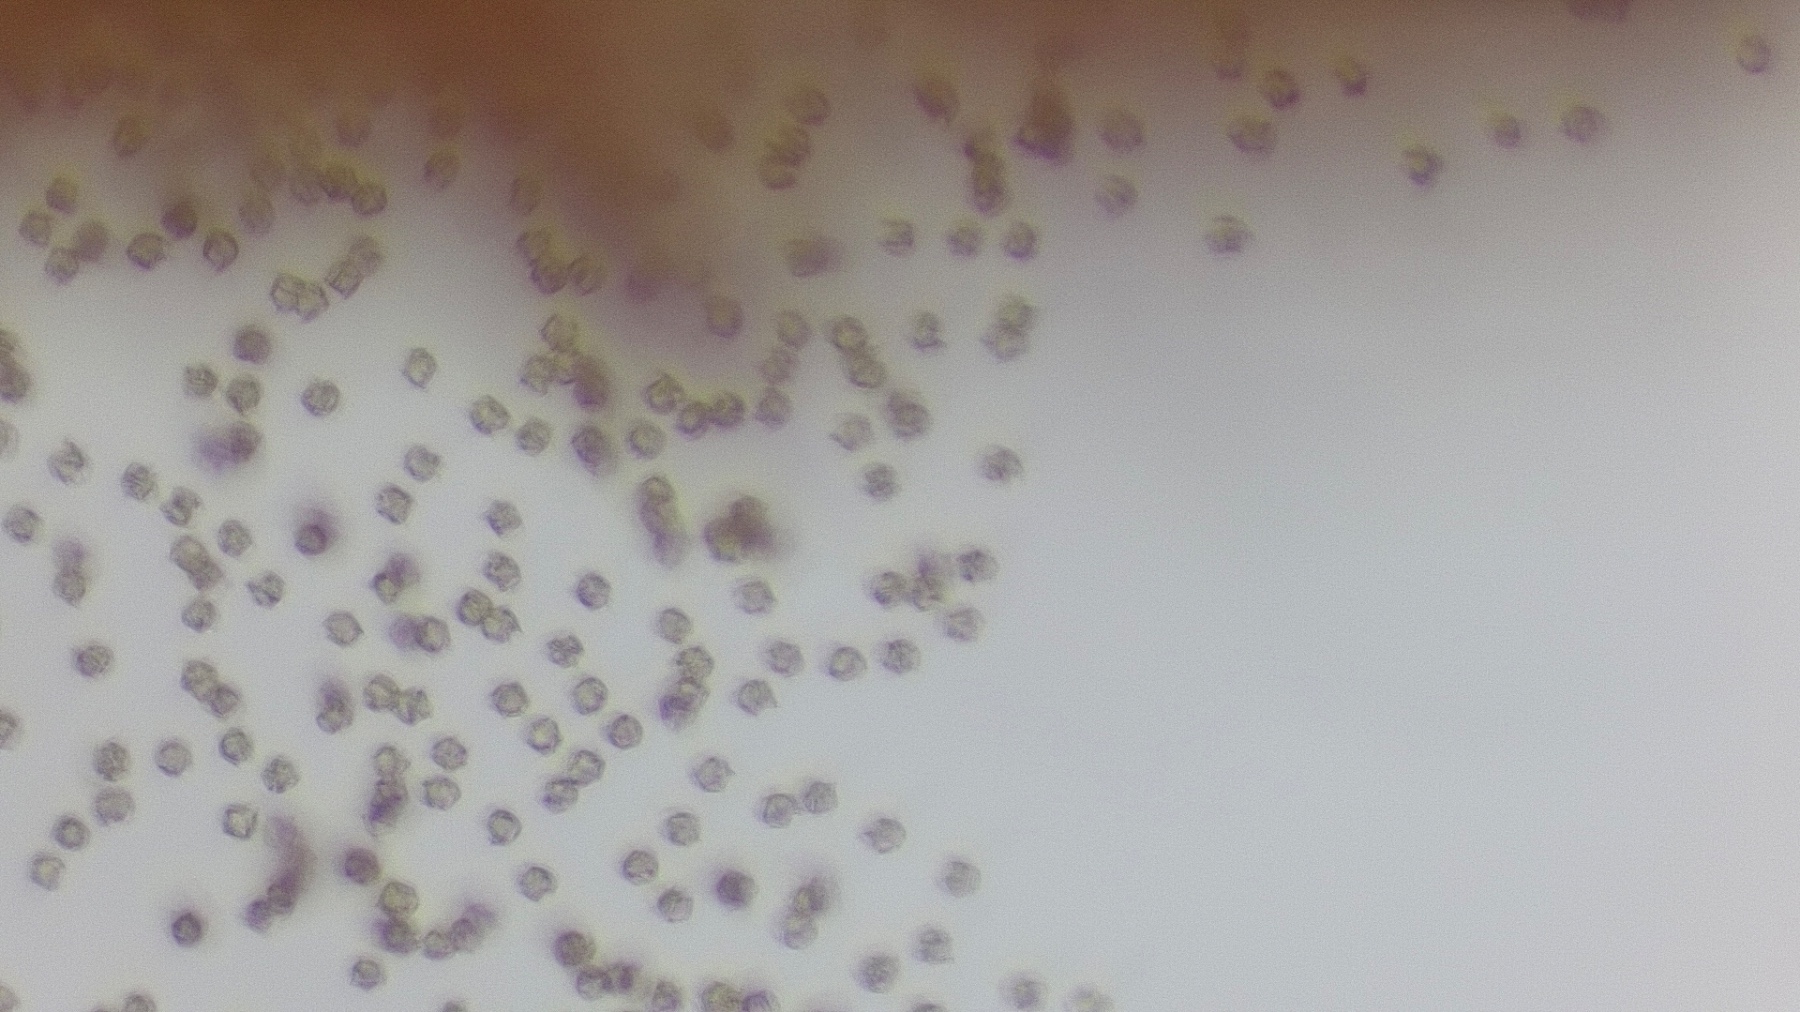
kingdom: Fungi
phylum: Basidiomycota
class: Agaricomycetes
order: Agaricales
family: Entolomataceae
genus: Entoloma
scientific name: Entoloma lividoalbum
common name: lysstokket rødblad
